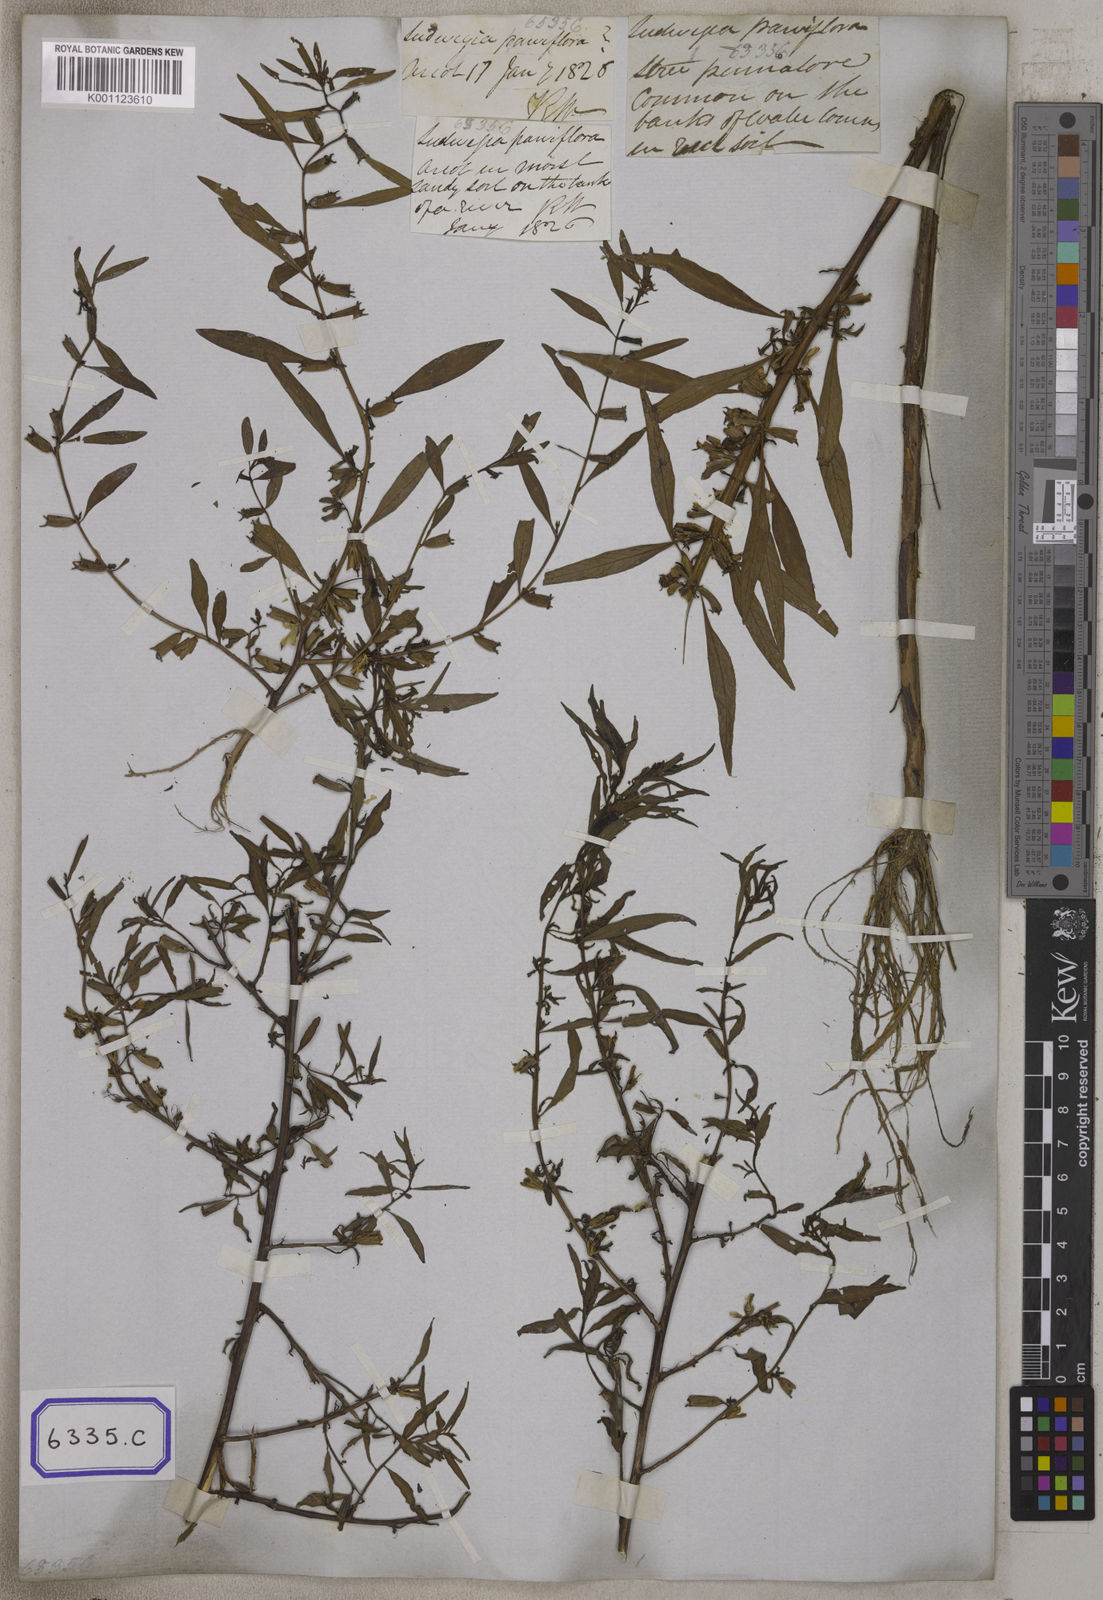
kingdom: Plantae
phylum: Tracheophyta
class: Magnoliopsida
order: Myrtales
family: Onagraceae
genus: Ludwigia
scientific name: Ludwigia perennis
